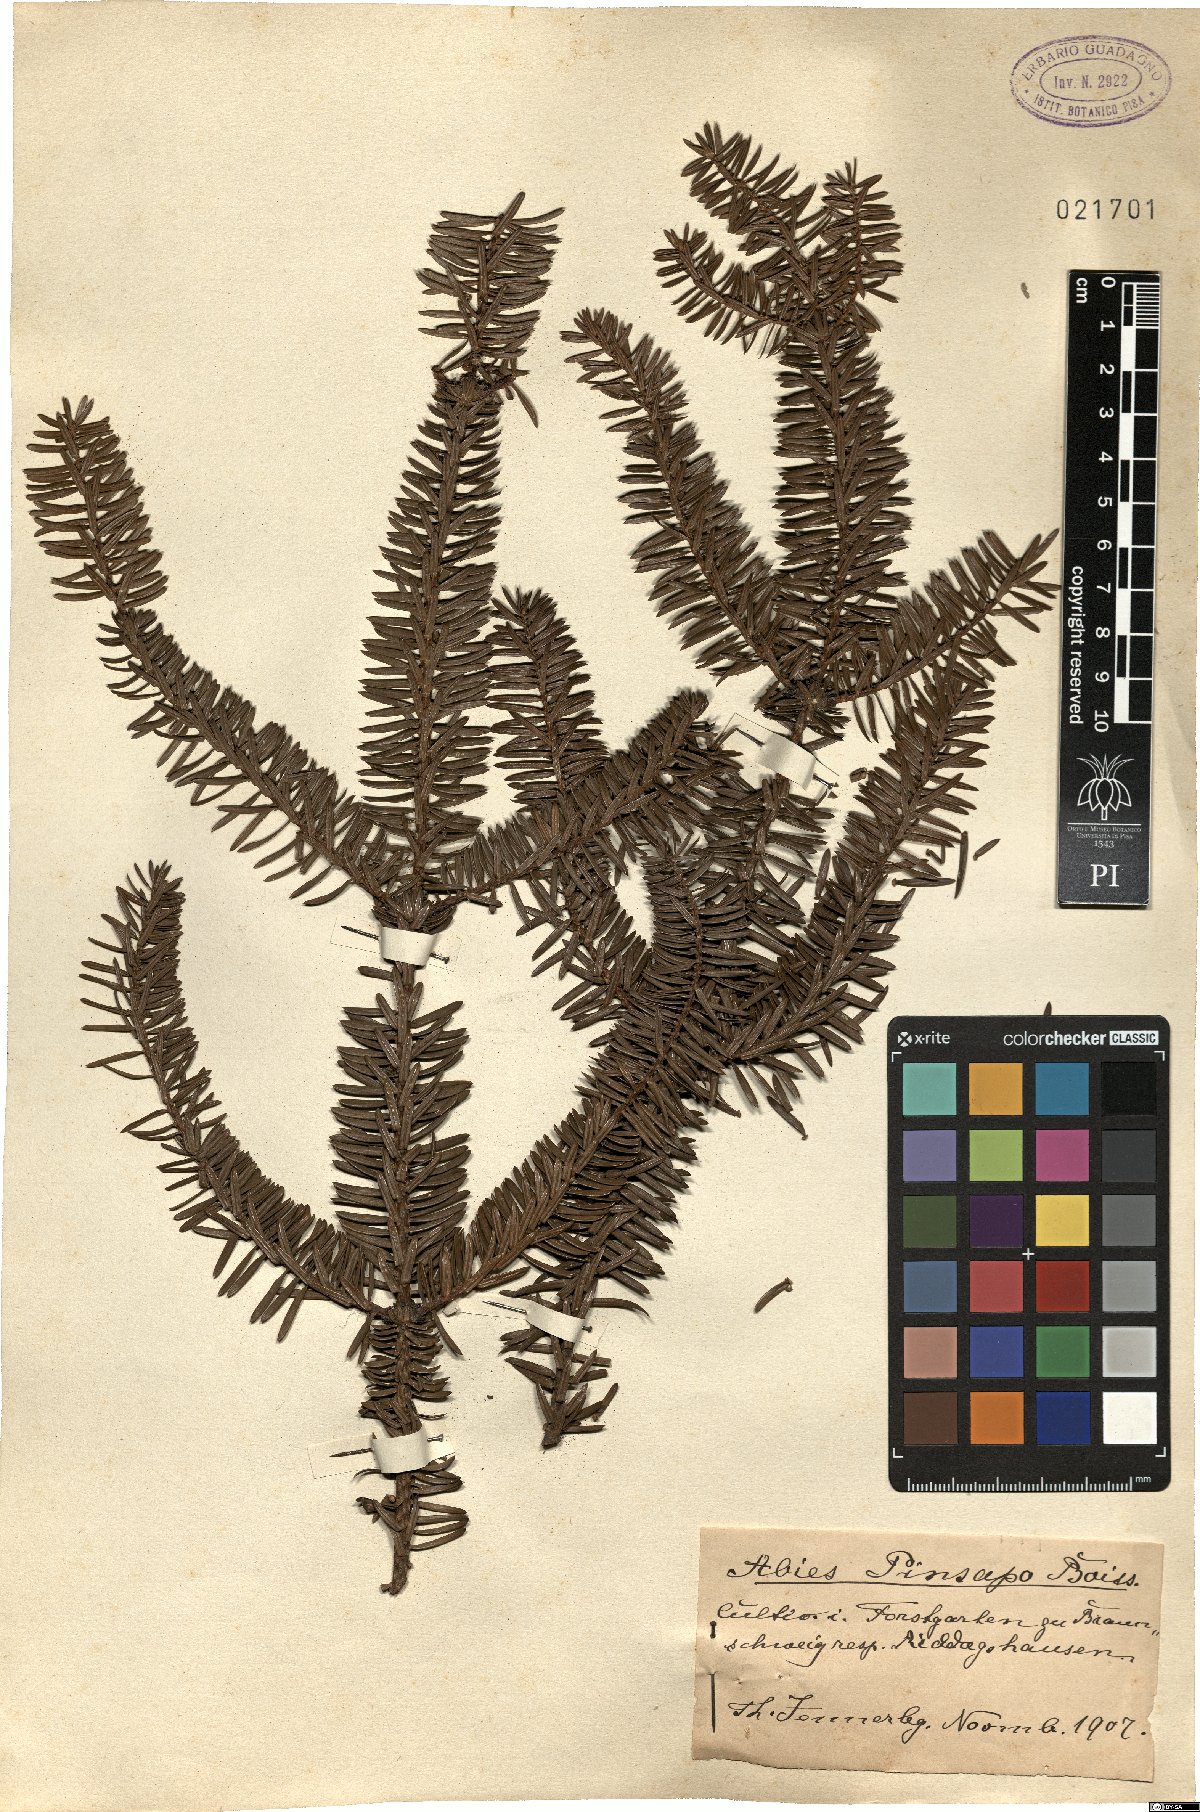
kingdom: Plantae
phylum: Tracheophyta
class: Pinopsida
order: Pinales
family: Pinaceae
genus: Abies
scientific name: Abies pinsapo
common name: Spanish fir
